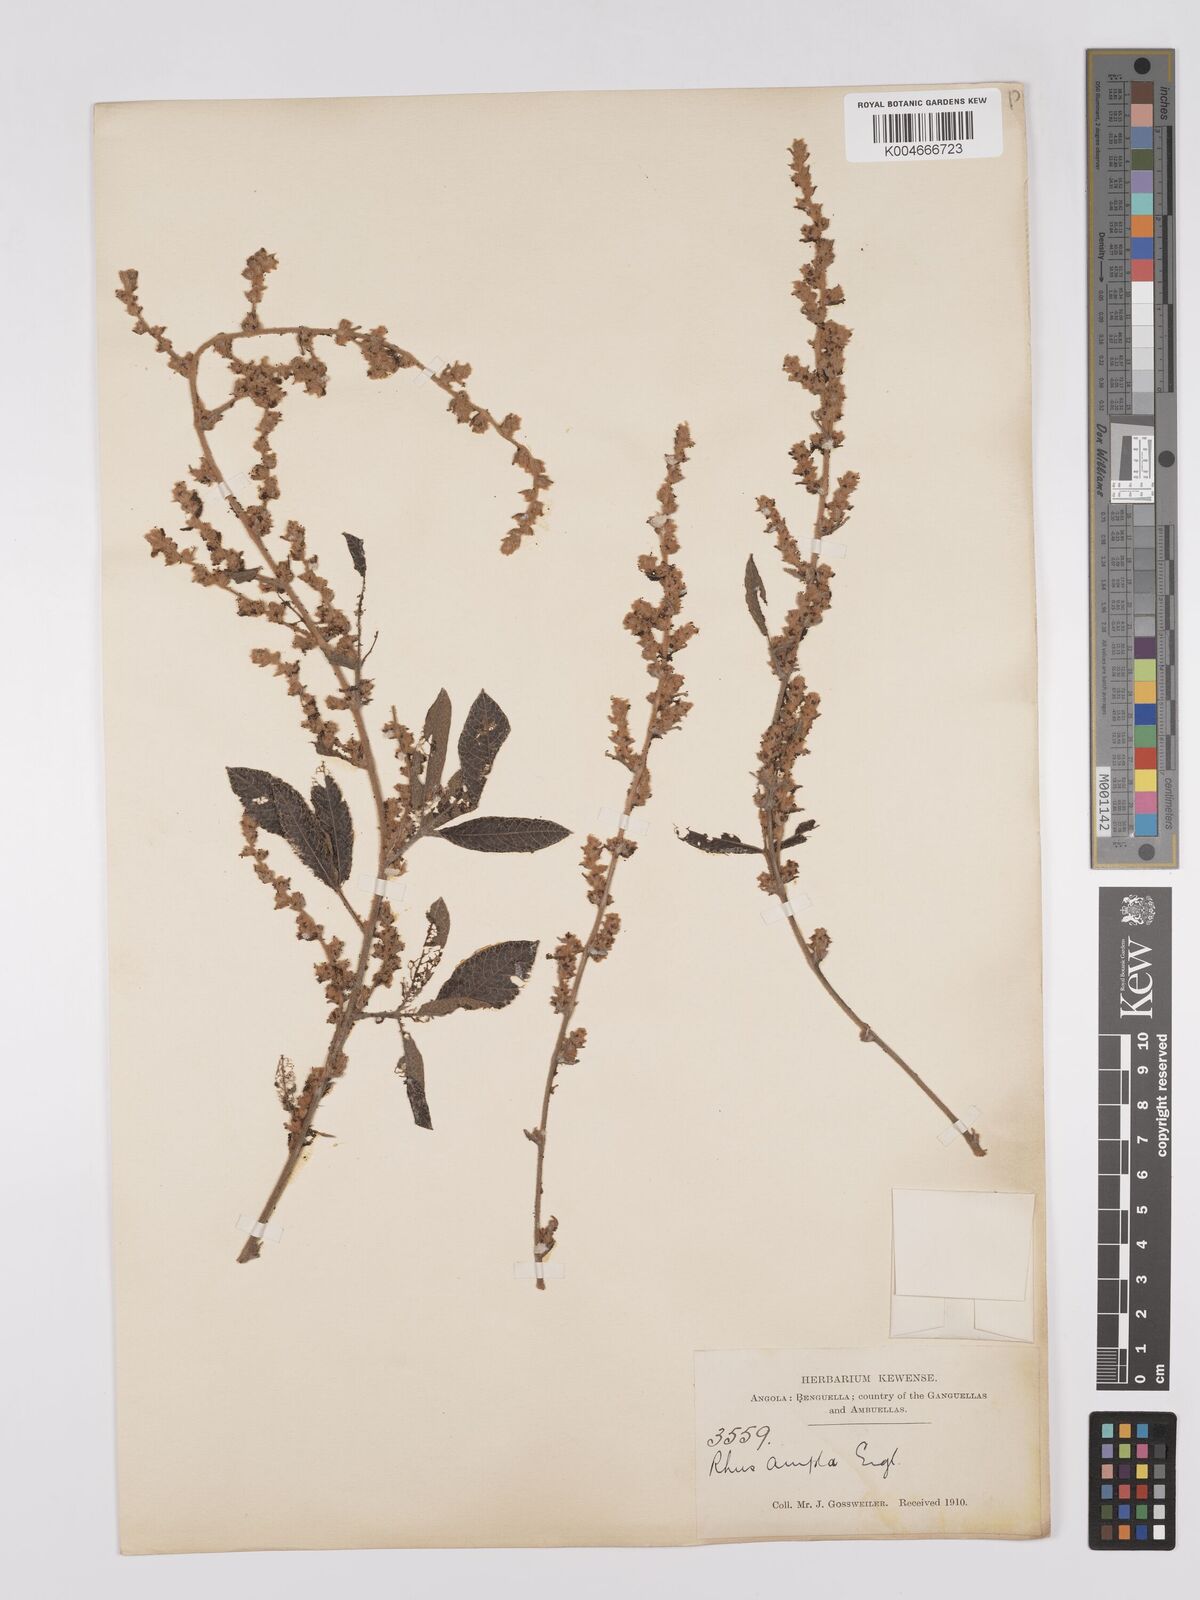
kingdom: Plantae
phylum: Tracheophyta
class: Magnoliopsida
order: Sapindales
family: Anacardiaceae
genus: Searsia
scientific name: Searsia kirkii
